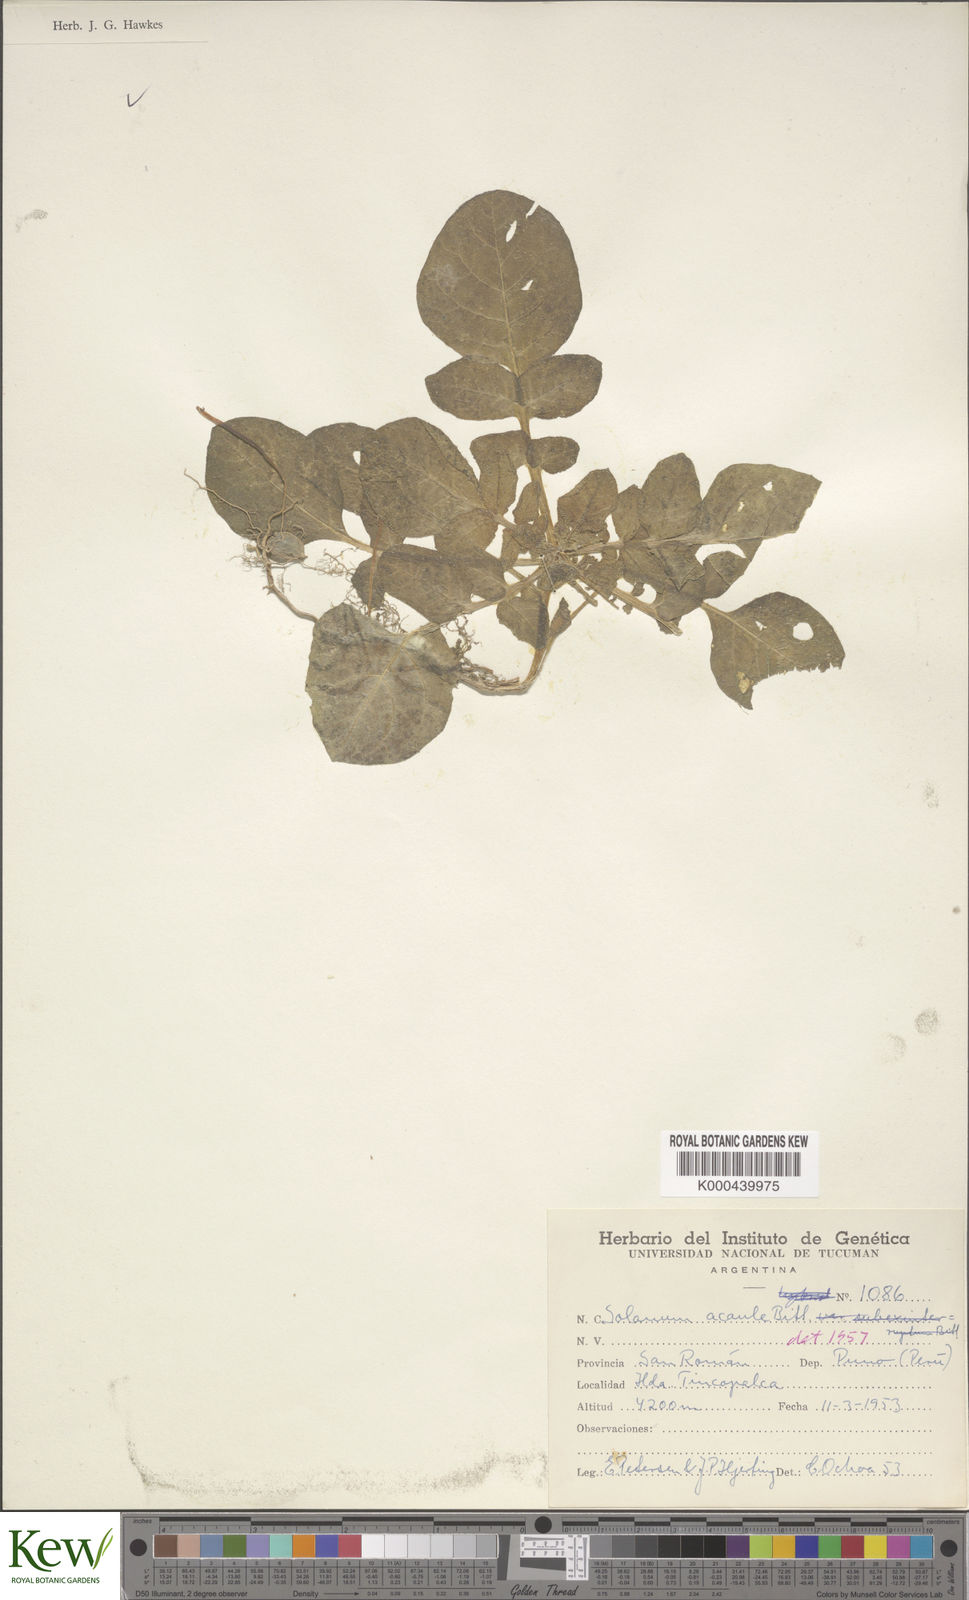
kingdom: Plantae
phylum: Tracheophyta
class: Magnoliopsida
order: Solanales
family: Solanaceae
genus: Solanum
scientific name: Solanum acaule
